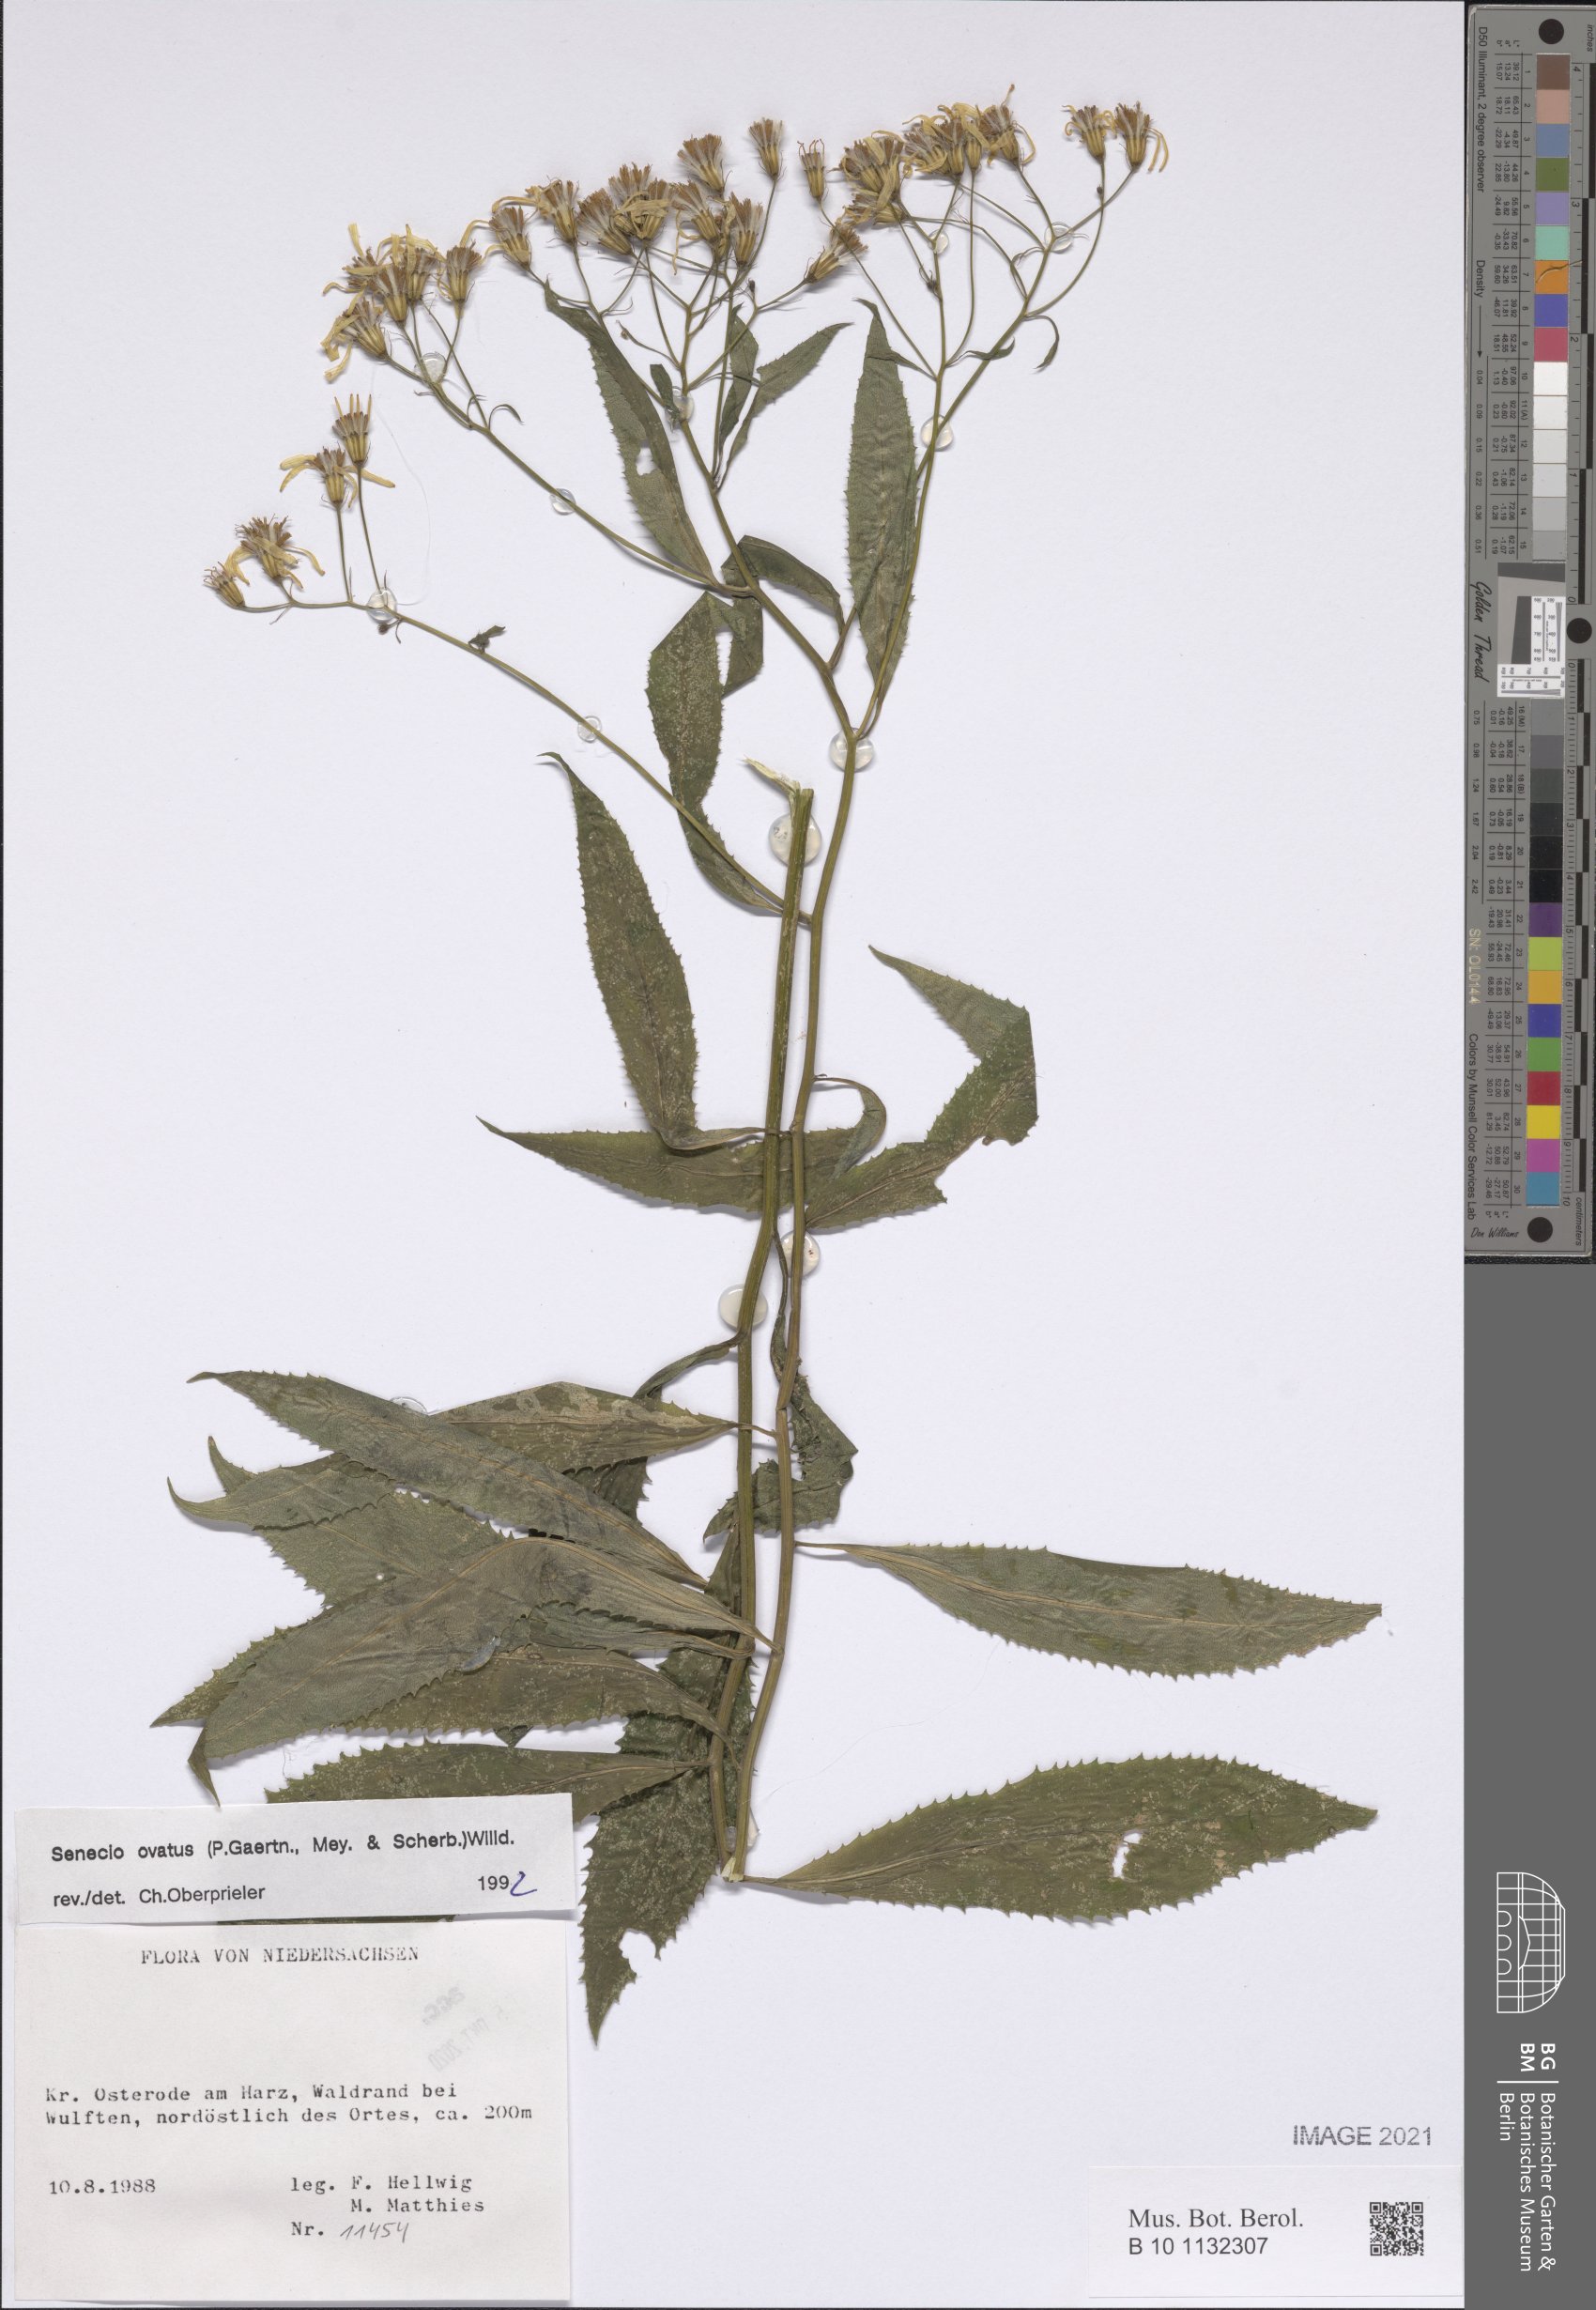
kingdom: Plantae
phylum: Tracheophyta
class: Magnoliopsida
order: Asterales
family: Asteraceae
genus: Senecio
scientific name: Senecio ovatus
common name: Wood ragwort
